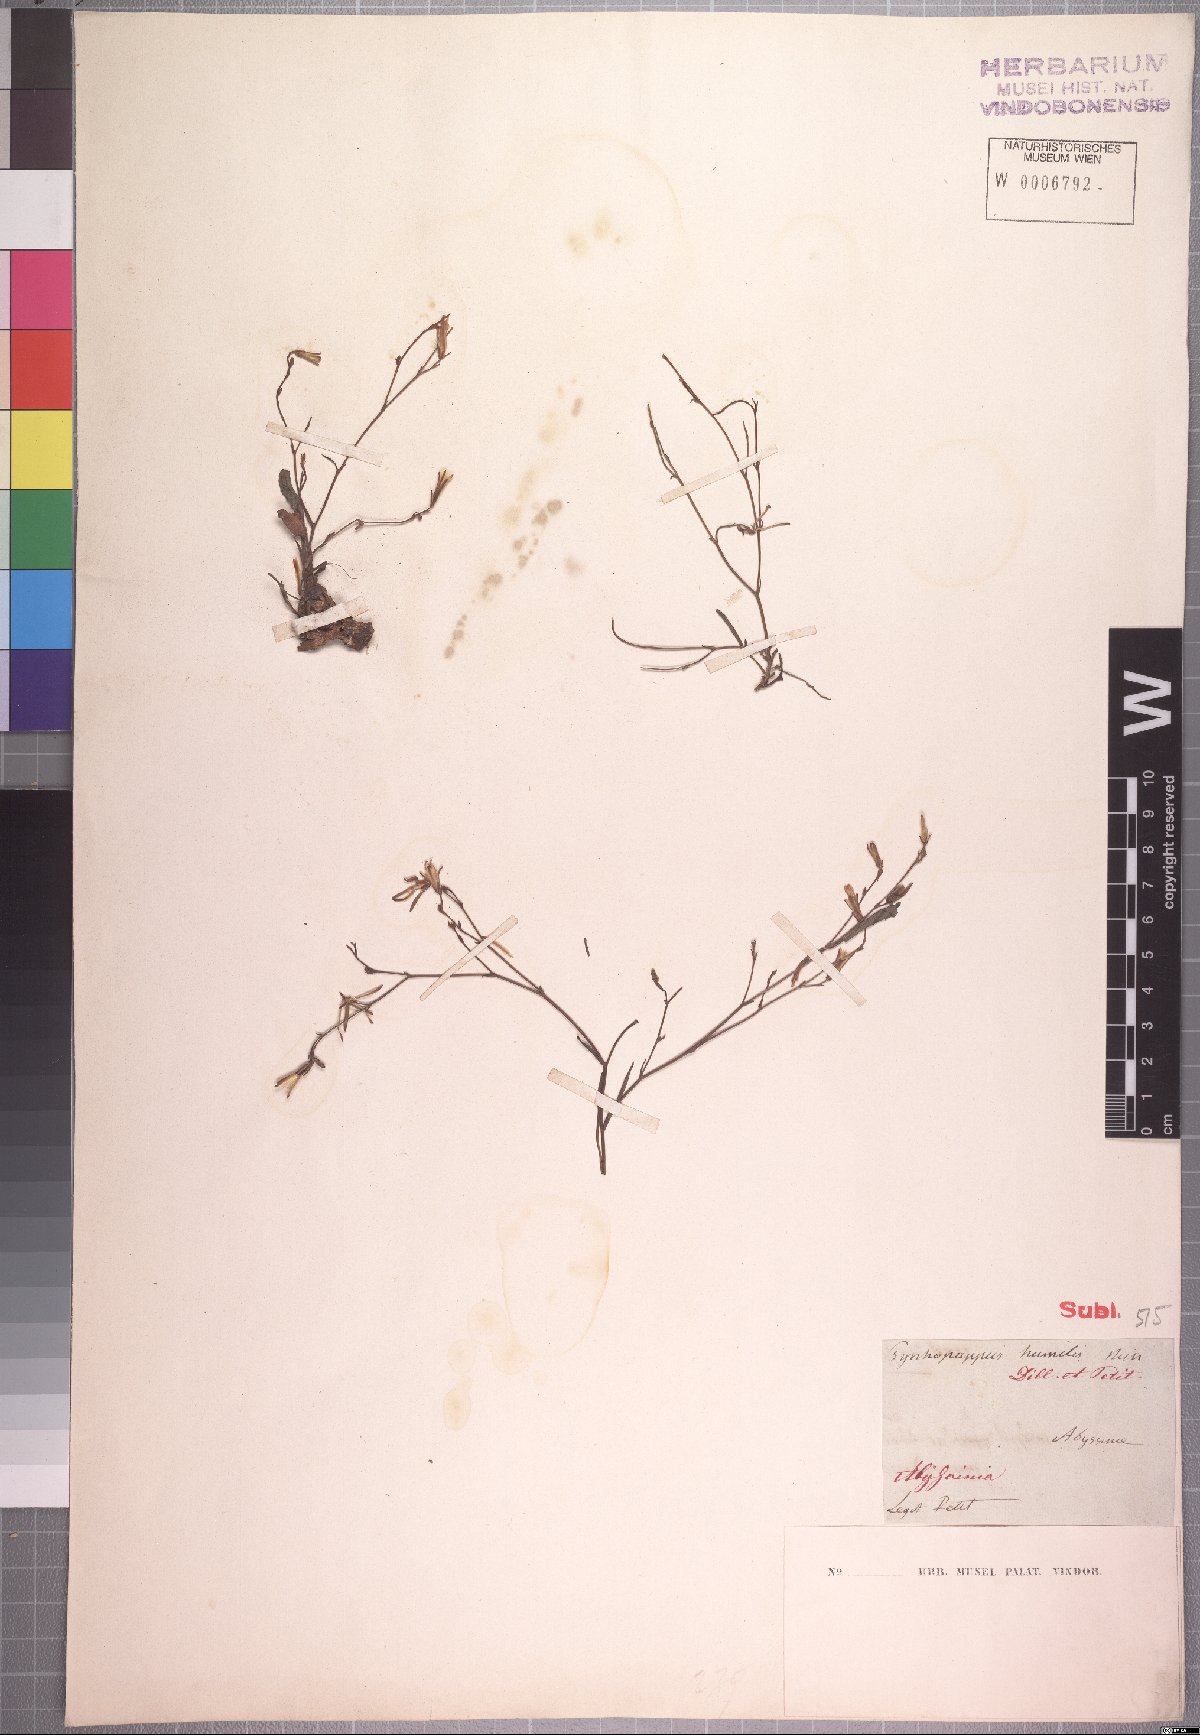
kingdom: Plantae
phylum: Tracheophyta
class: Magnoliopsida
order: Asterales
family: Asteraceae
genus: Lactuca
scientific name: Lactuca inermis
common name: Wild lettuce
